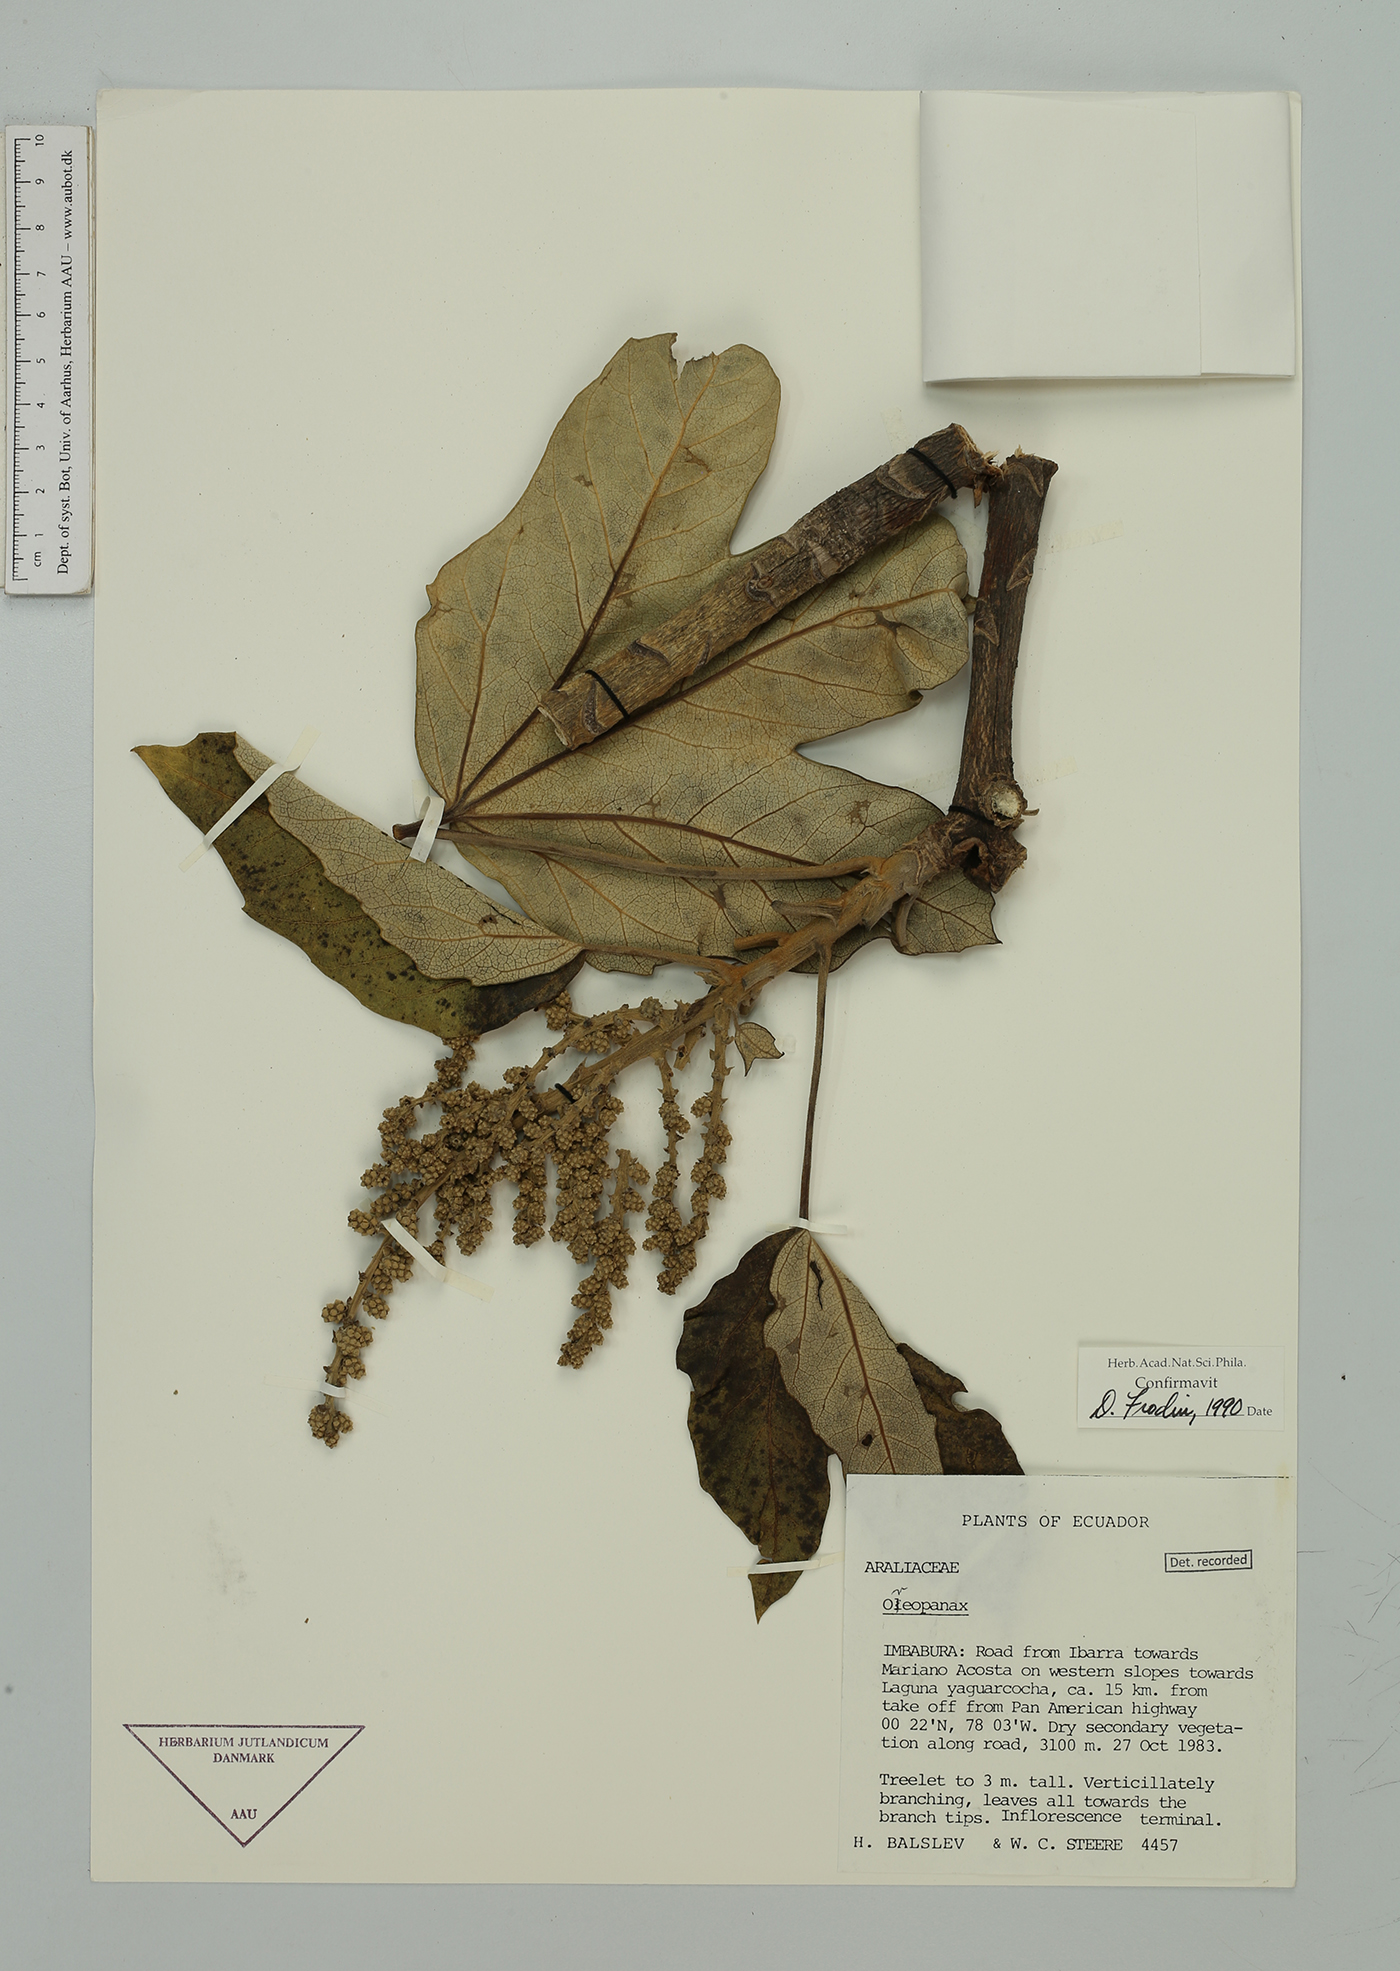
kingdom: Plantae
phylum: Tracheophyta
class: Magnoliopsida
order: Apiales
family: Araliaceae
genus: Oreopanax
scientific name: Oreopanax
